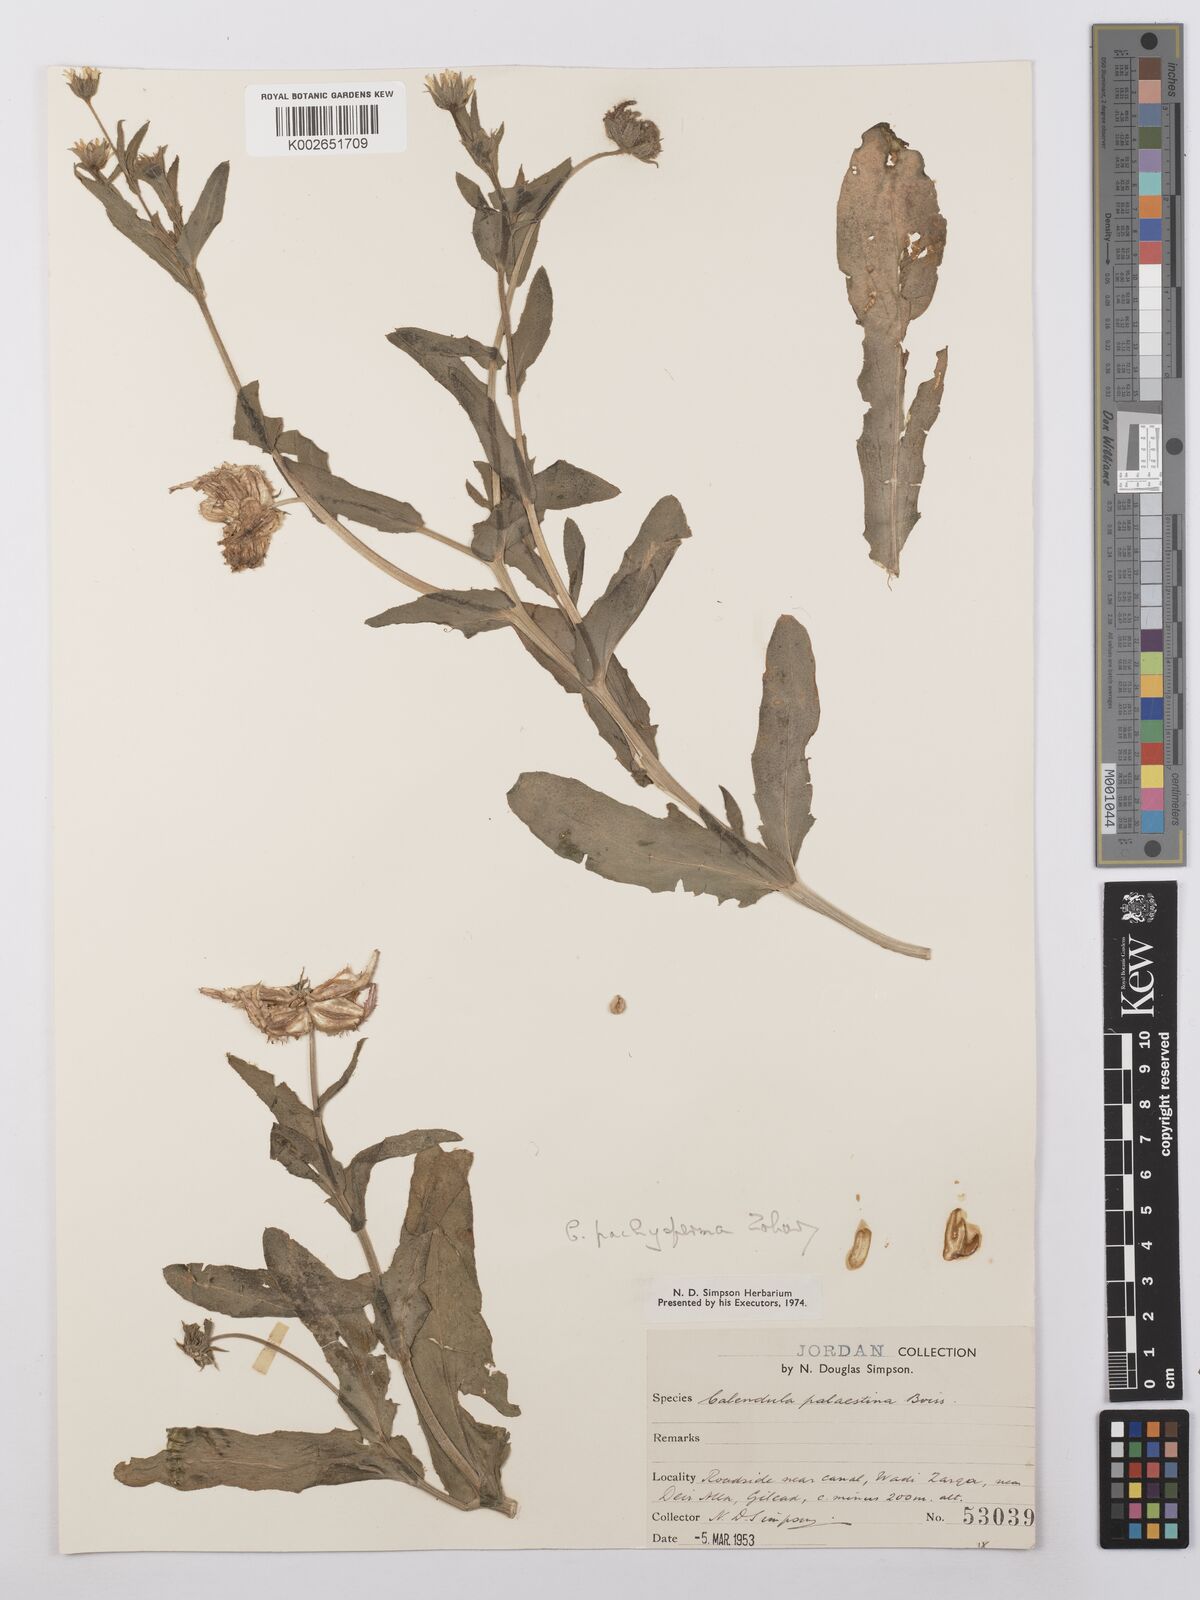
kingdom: Plantae
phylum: Tracheophyta
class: Magnoliopsida
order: Asterales
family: Asteraceae
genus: Calendula
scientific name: Calendula pachysperma
